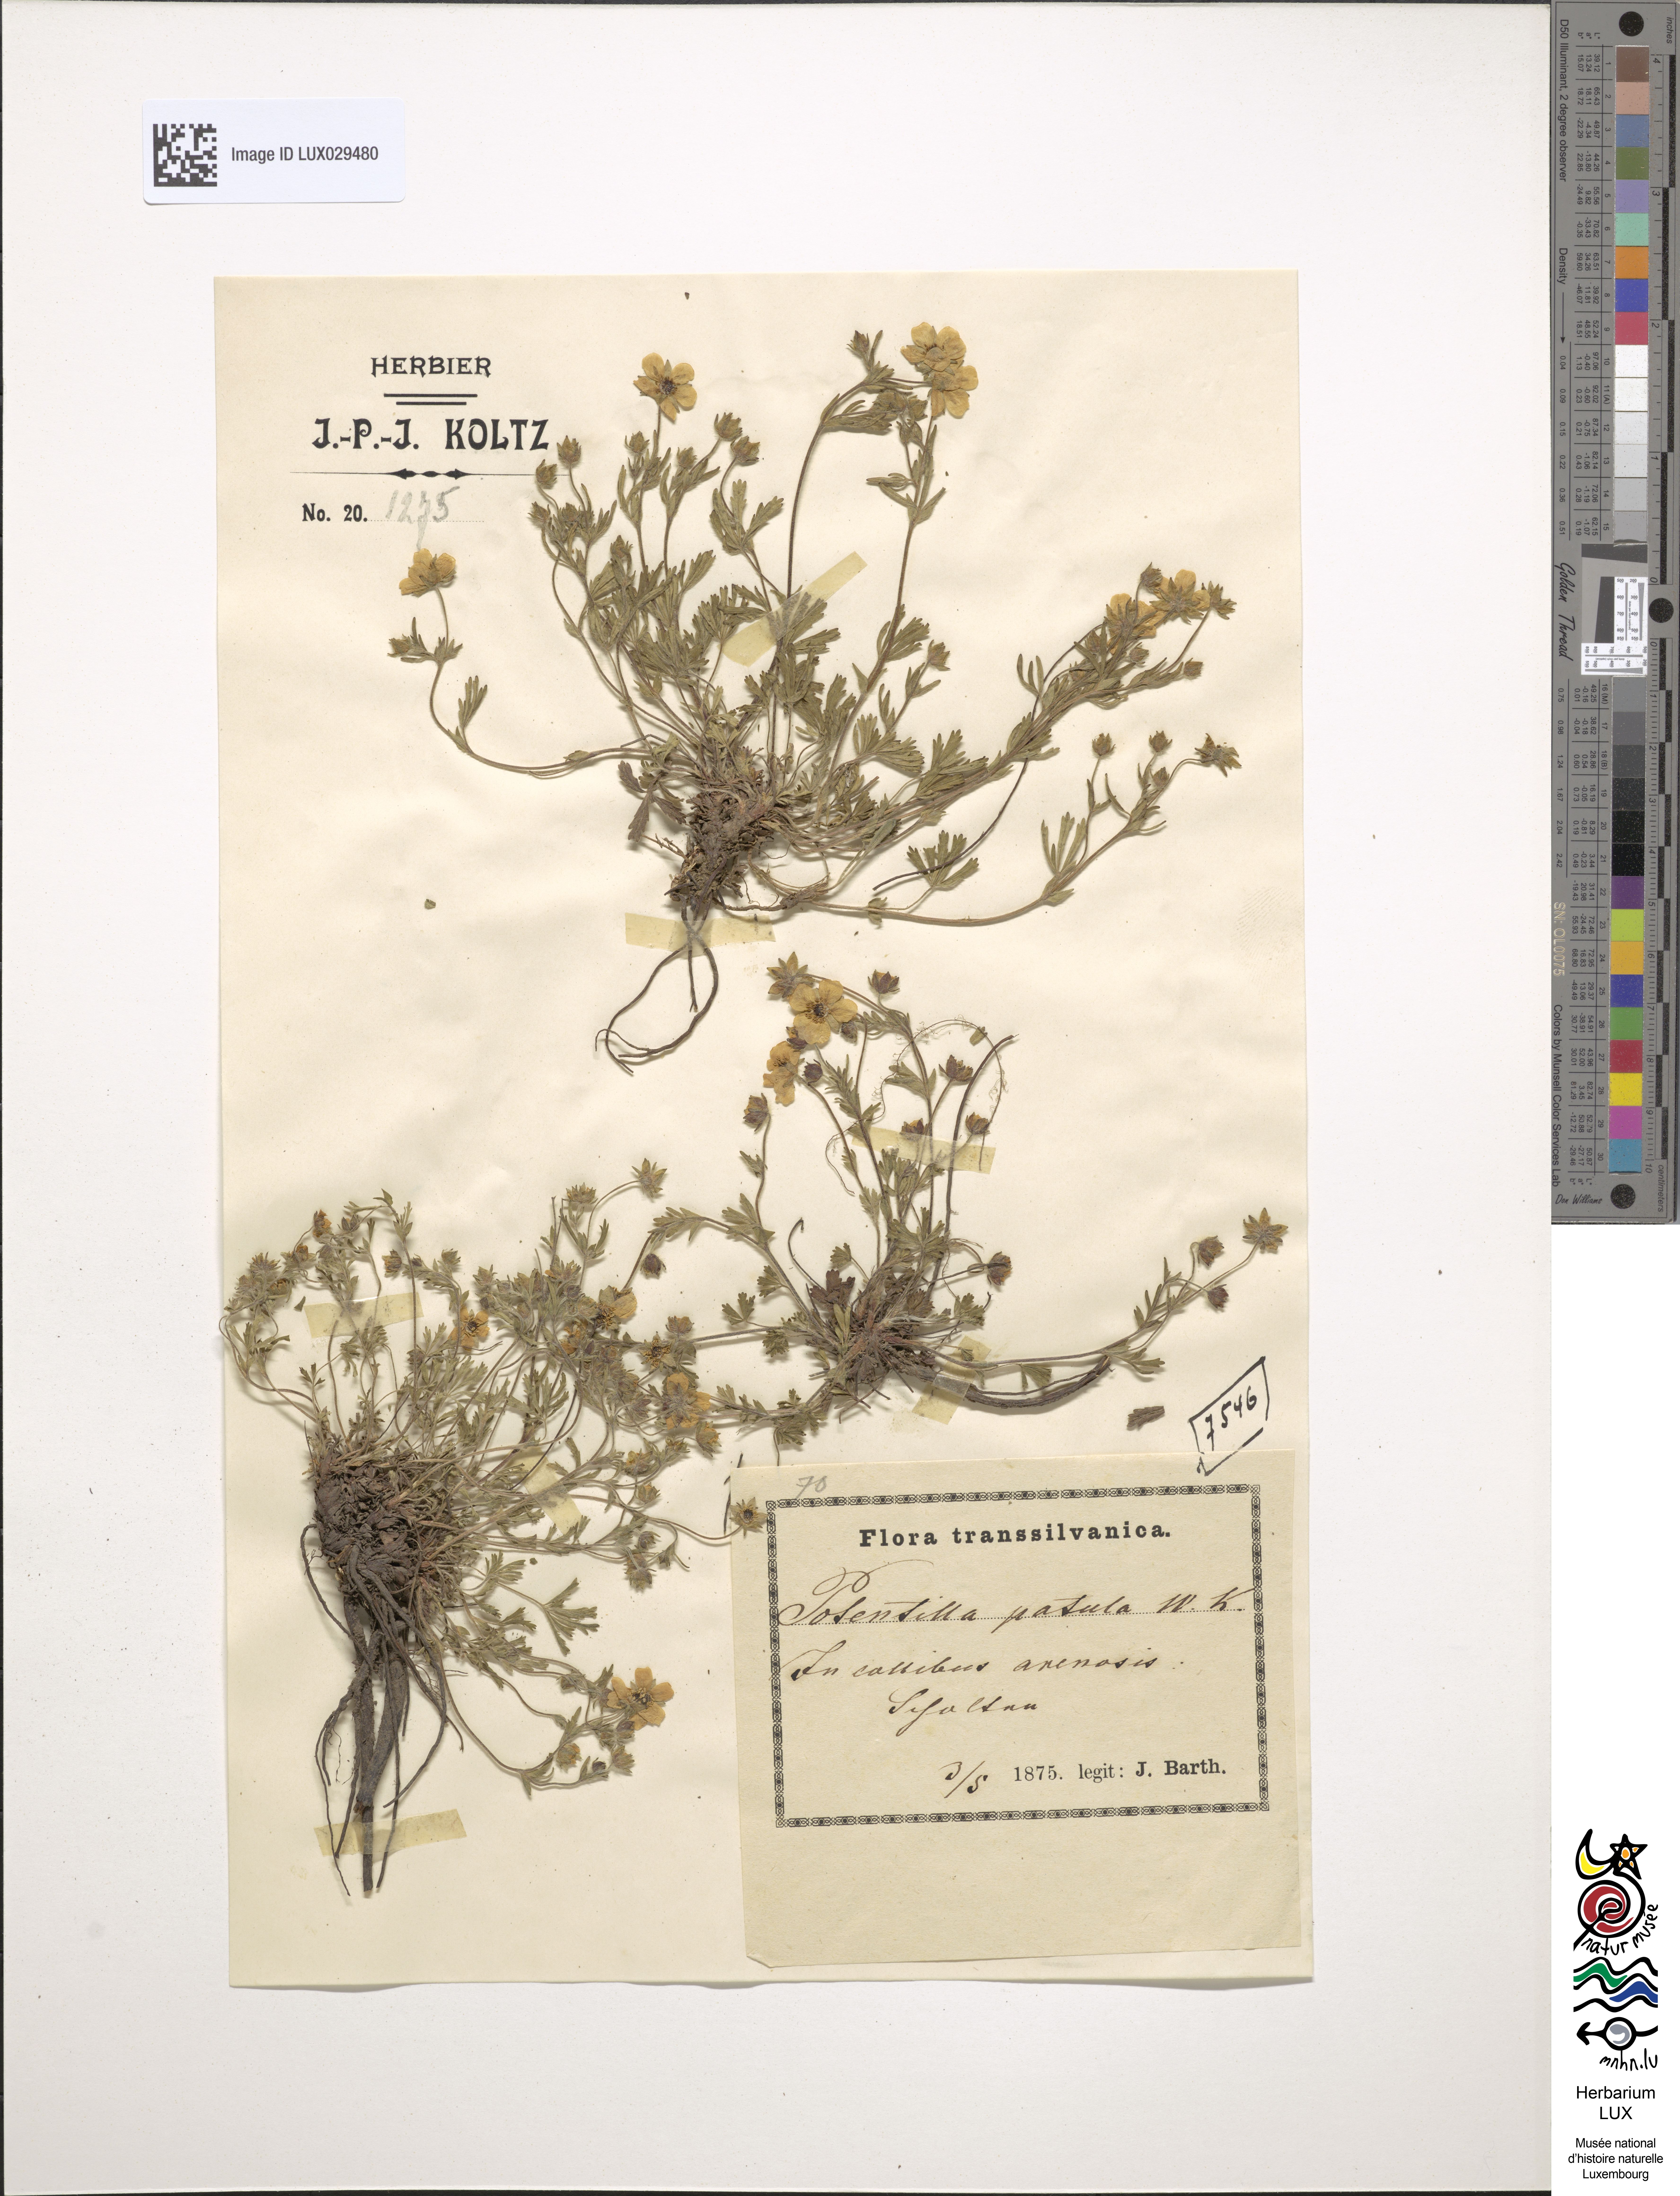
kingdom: Plantae
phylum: Tracheophyta
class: Magnoliopsida
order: Rosales
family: Rosaceae
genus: Potentilla
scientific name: Potentilla patula
